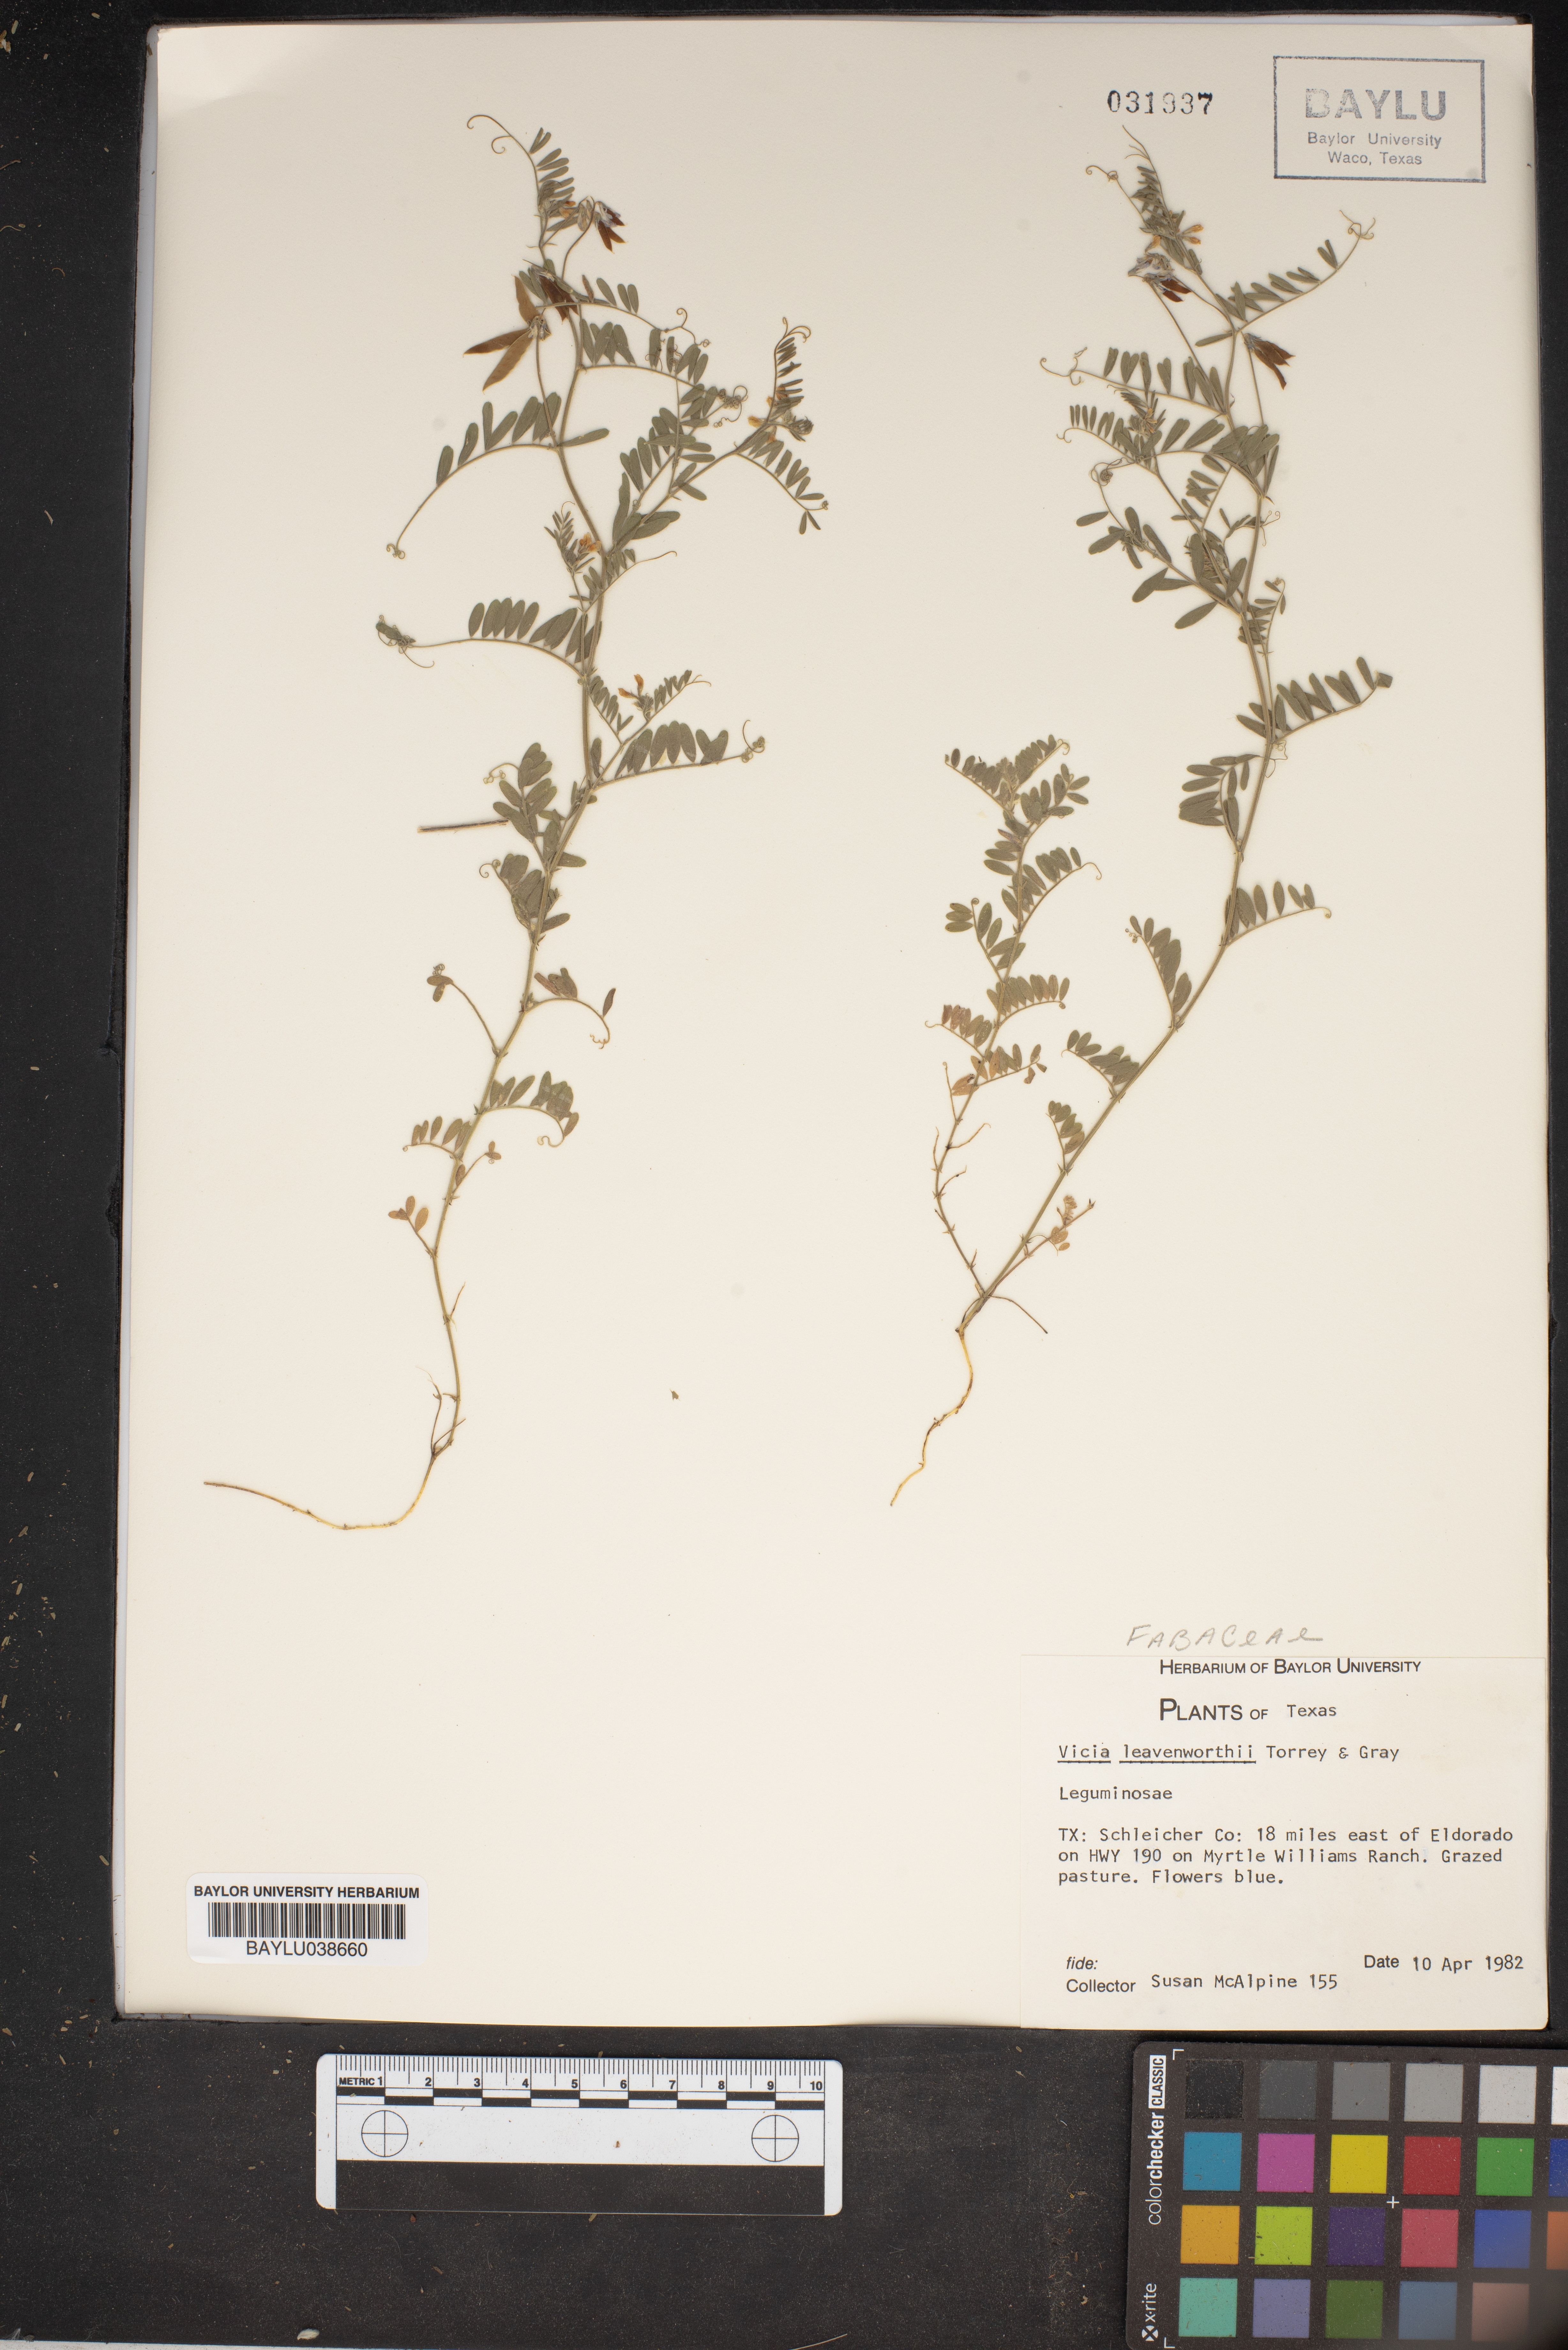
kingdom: Plantae
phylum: Tracheophyta
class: Magnoliopsida
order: Fabales
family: Fabaceae
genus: Vicia
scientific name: Vicia ludoviciana
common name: Louisiana vetch
